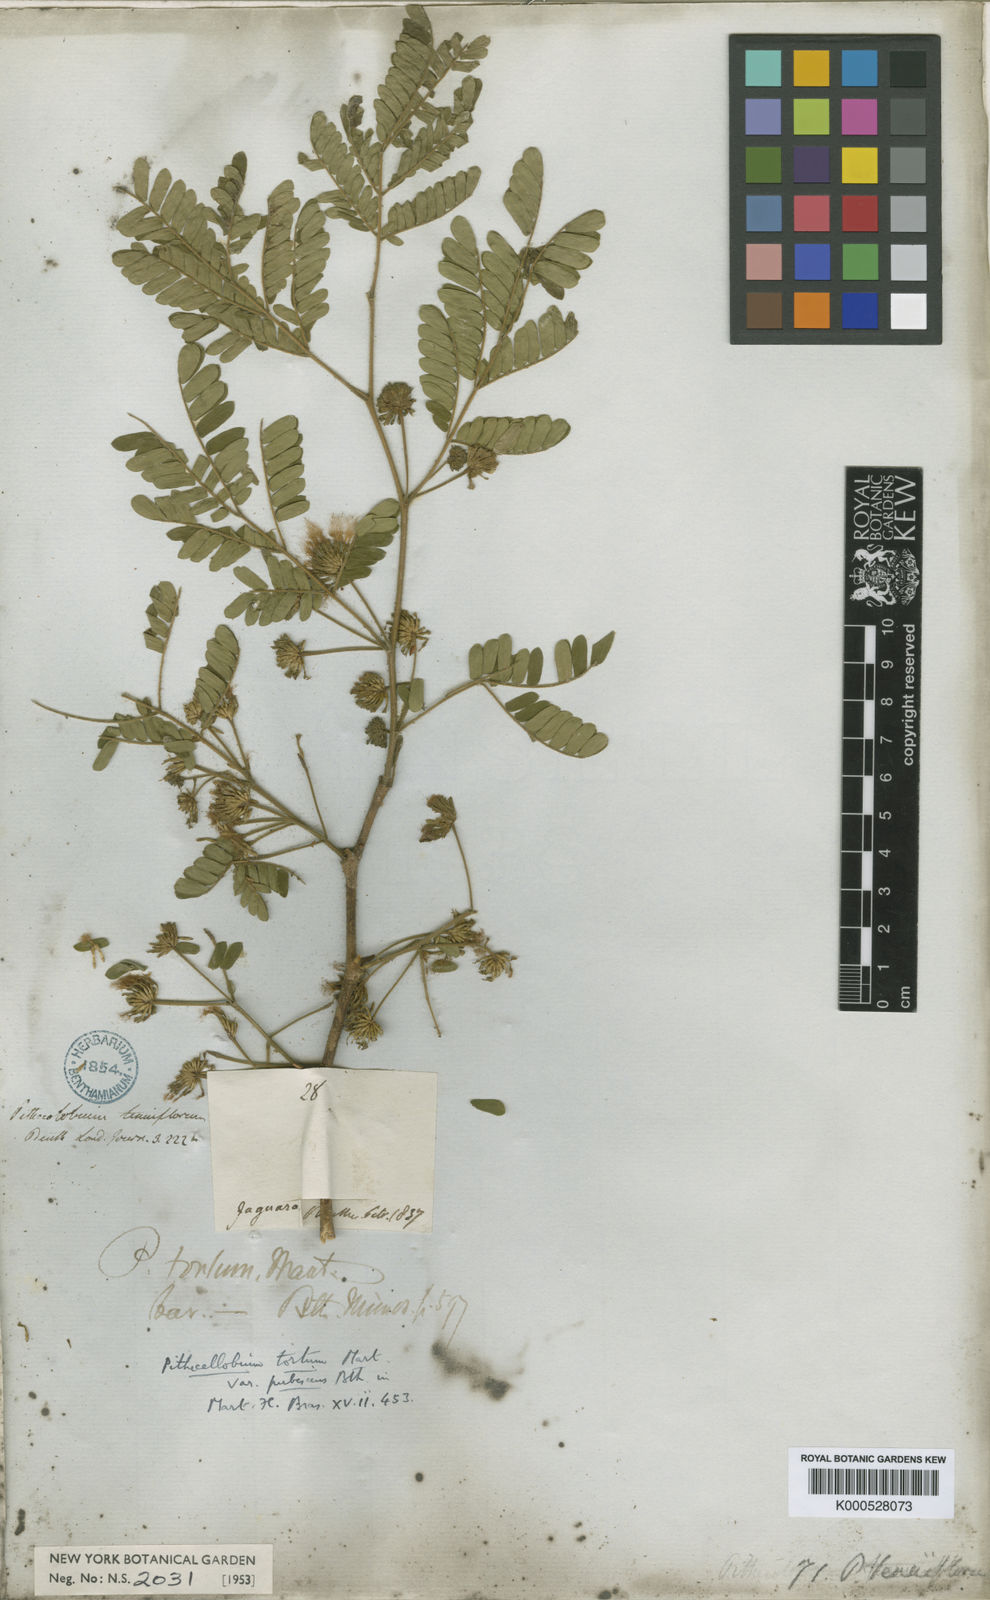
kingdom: Plantae
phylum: Tracheophyta
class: Magnoliopsida
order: Fabales
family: Fabaceae
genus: Chloroleucon
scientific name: Chloroleucon
